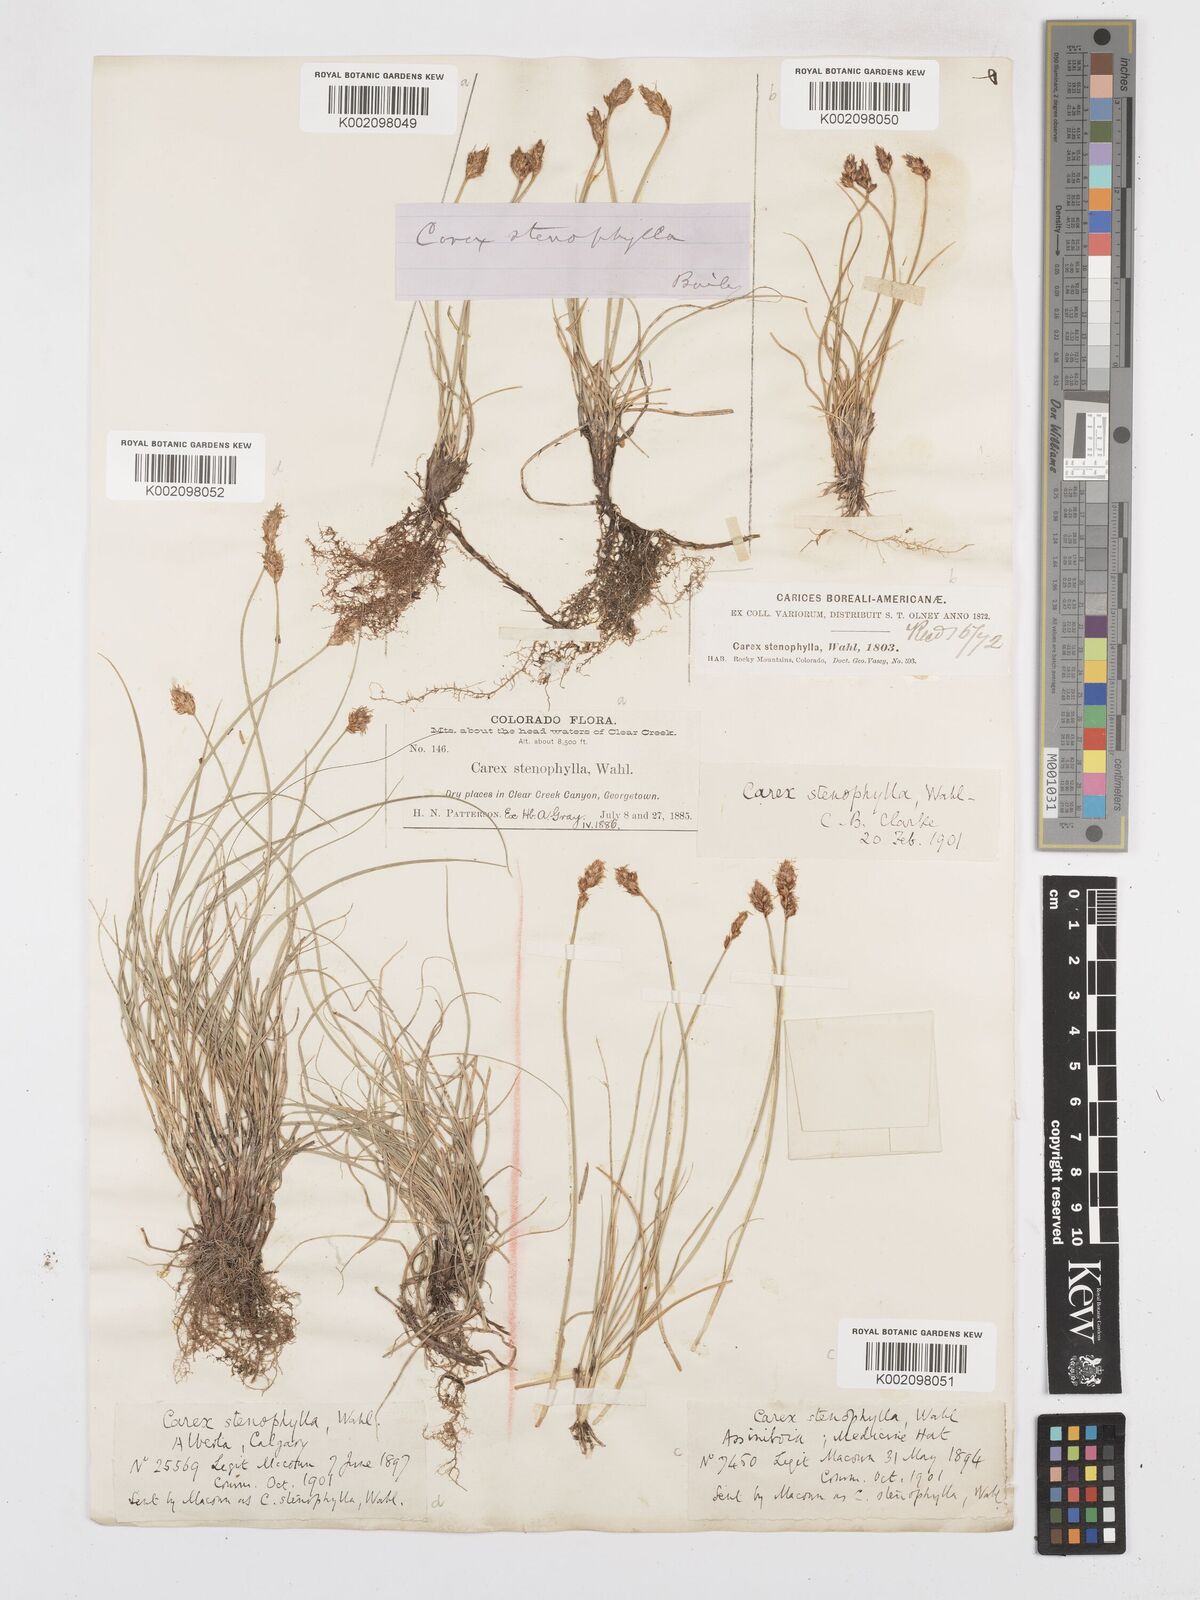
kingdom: Plantae
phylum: Tracheophyta
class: Liliopsida
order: Poales
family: Cyperaceae
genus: Carex
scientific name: Carex duriuscula
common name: Involute-leaved sedge
